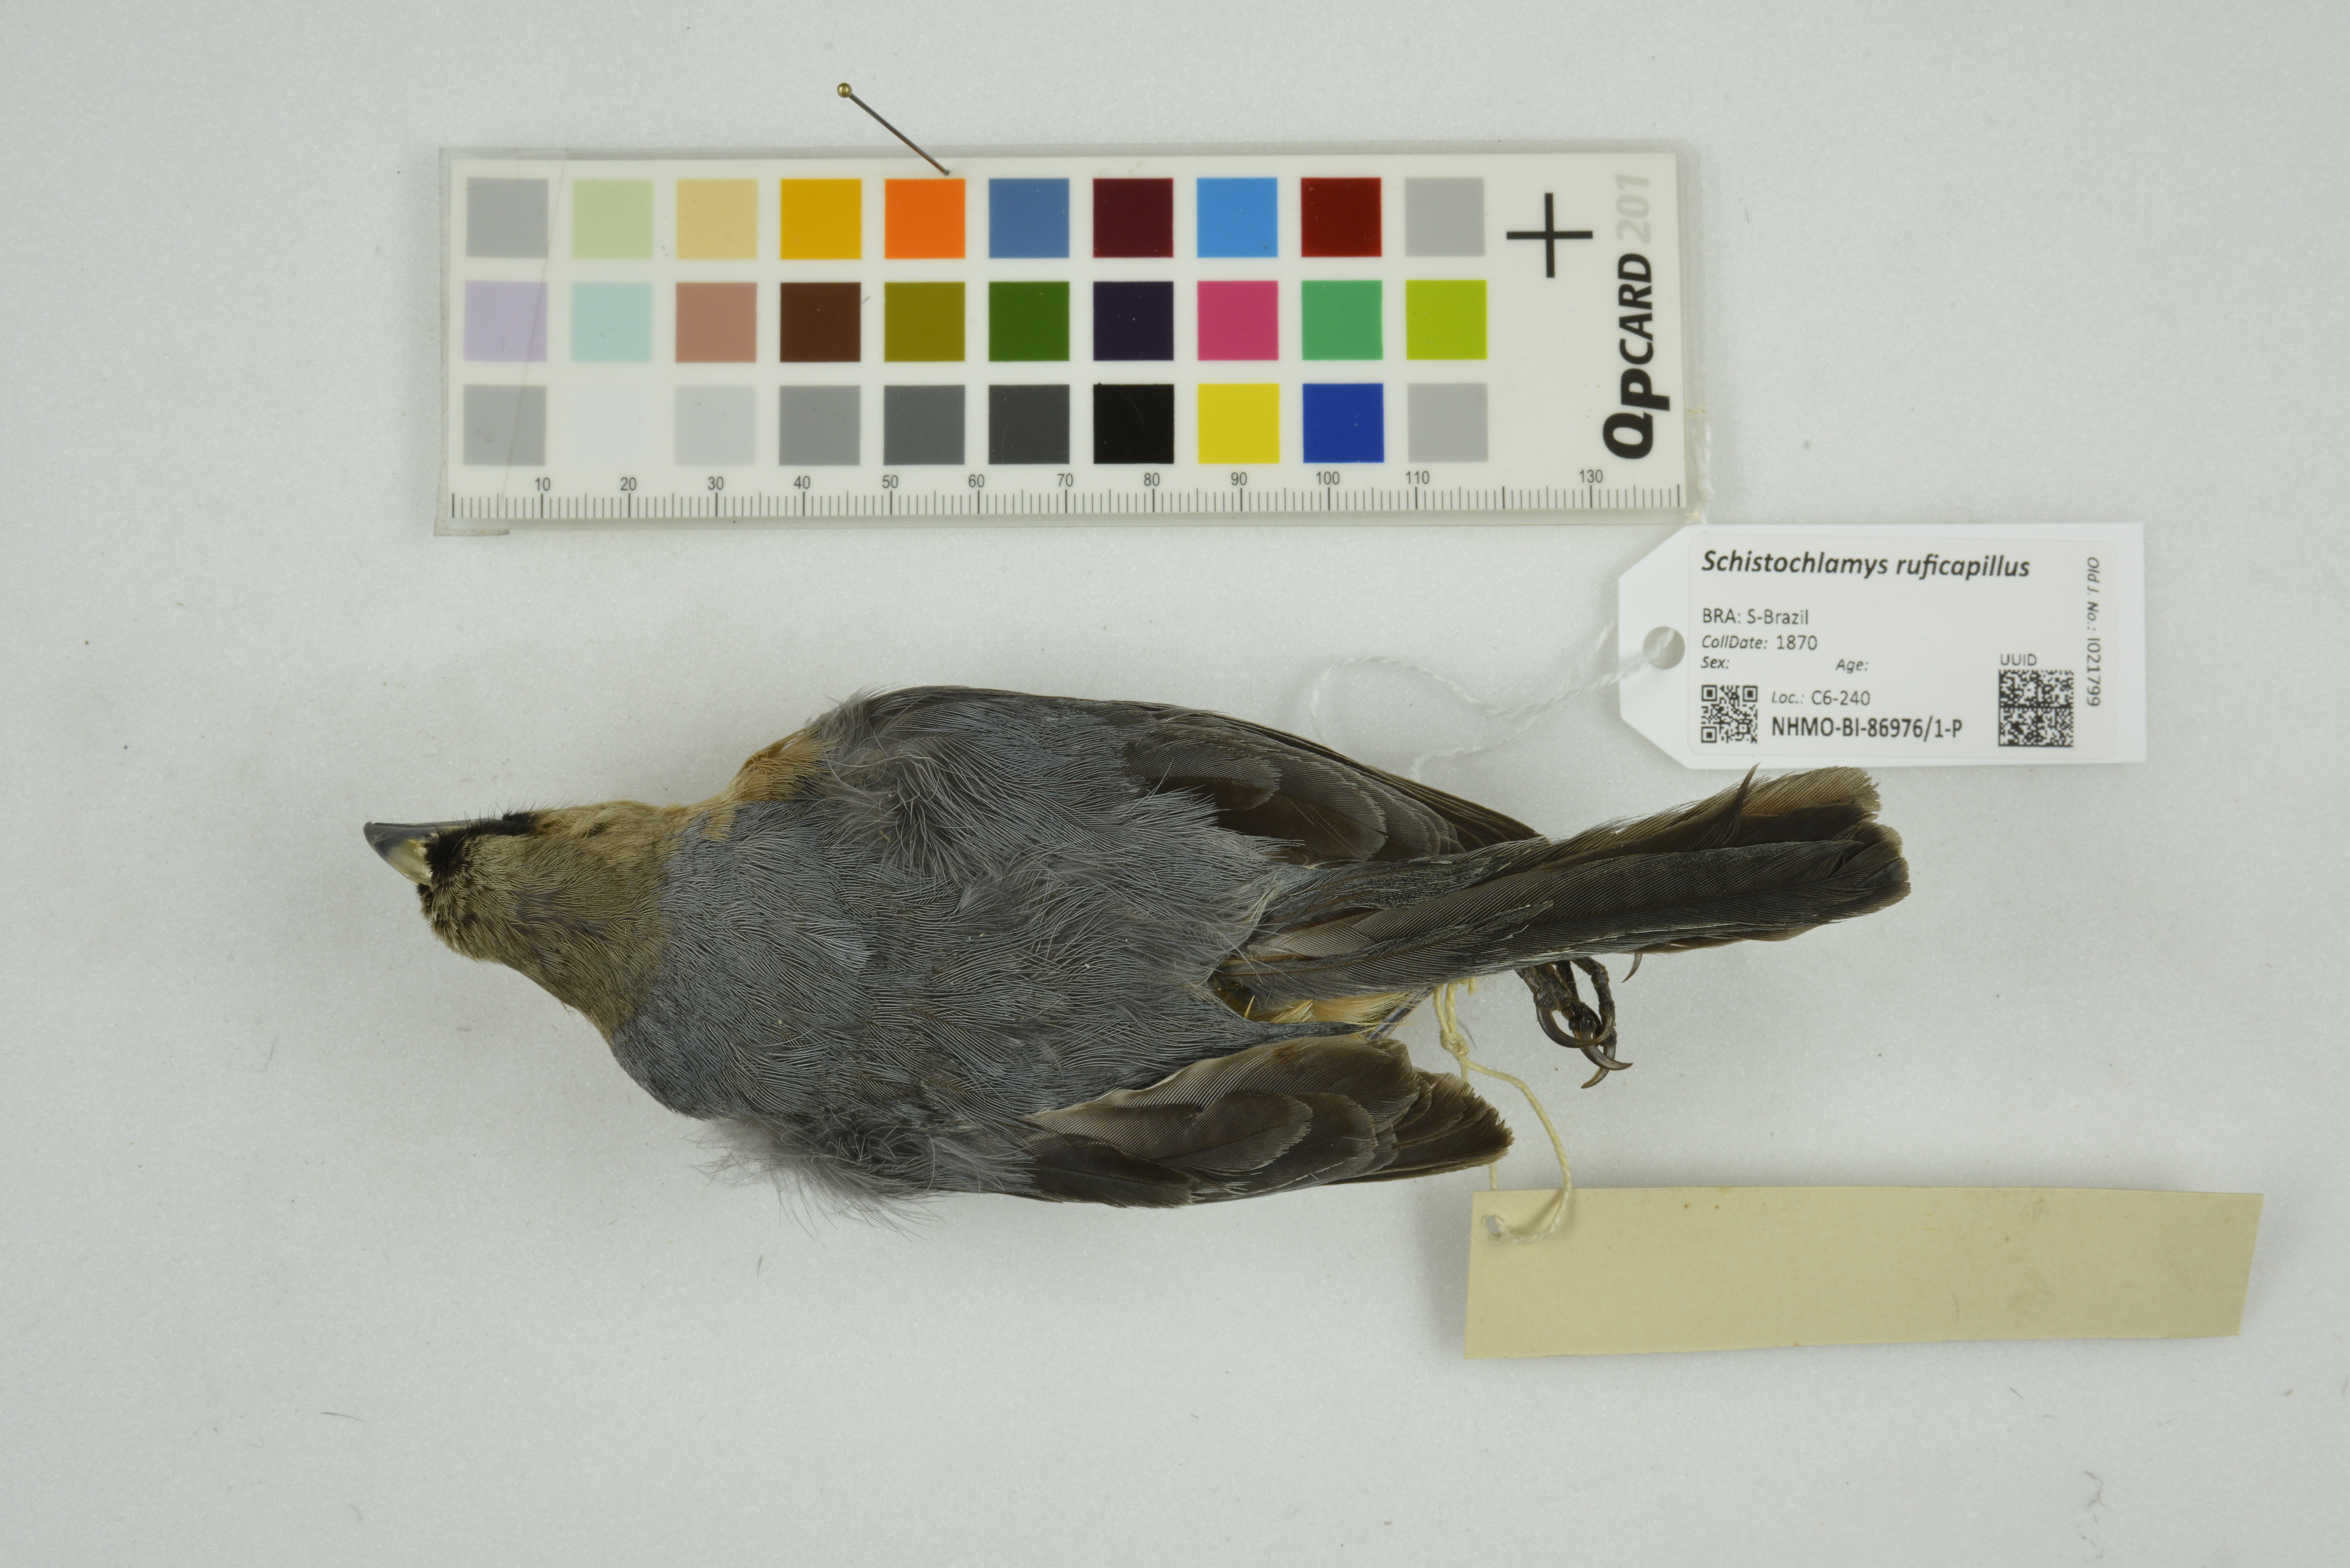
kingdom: Animalia
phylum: Chordata
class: Aves
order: Passeriformes
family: Thraupidae
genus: Schistochlamys
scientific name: Schistochlamys ruficapillus
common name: Cinnamon tanager
